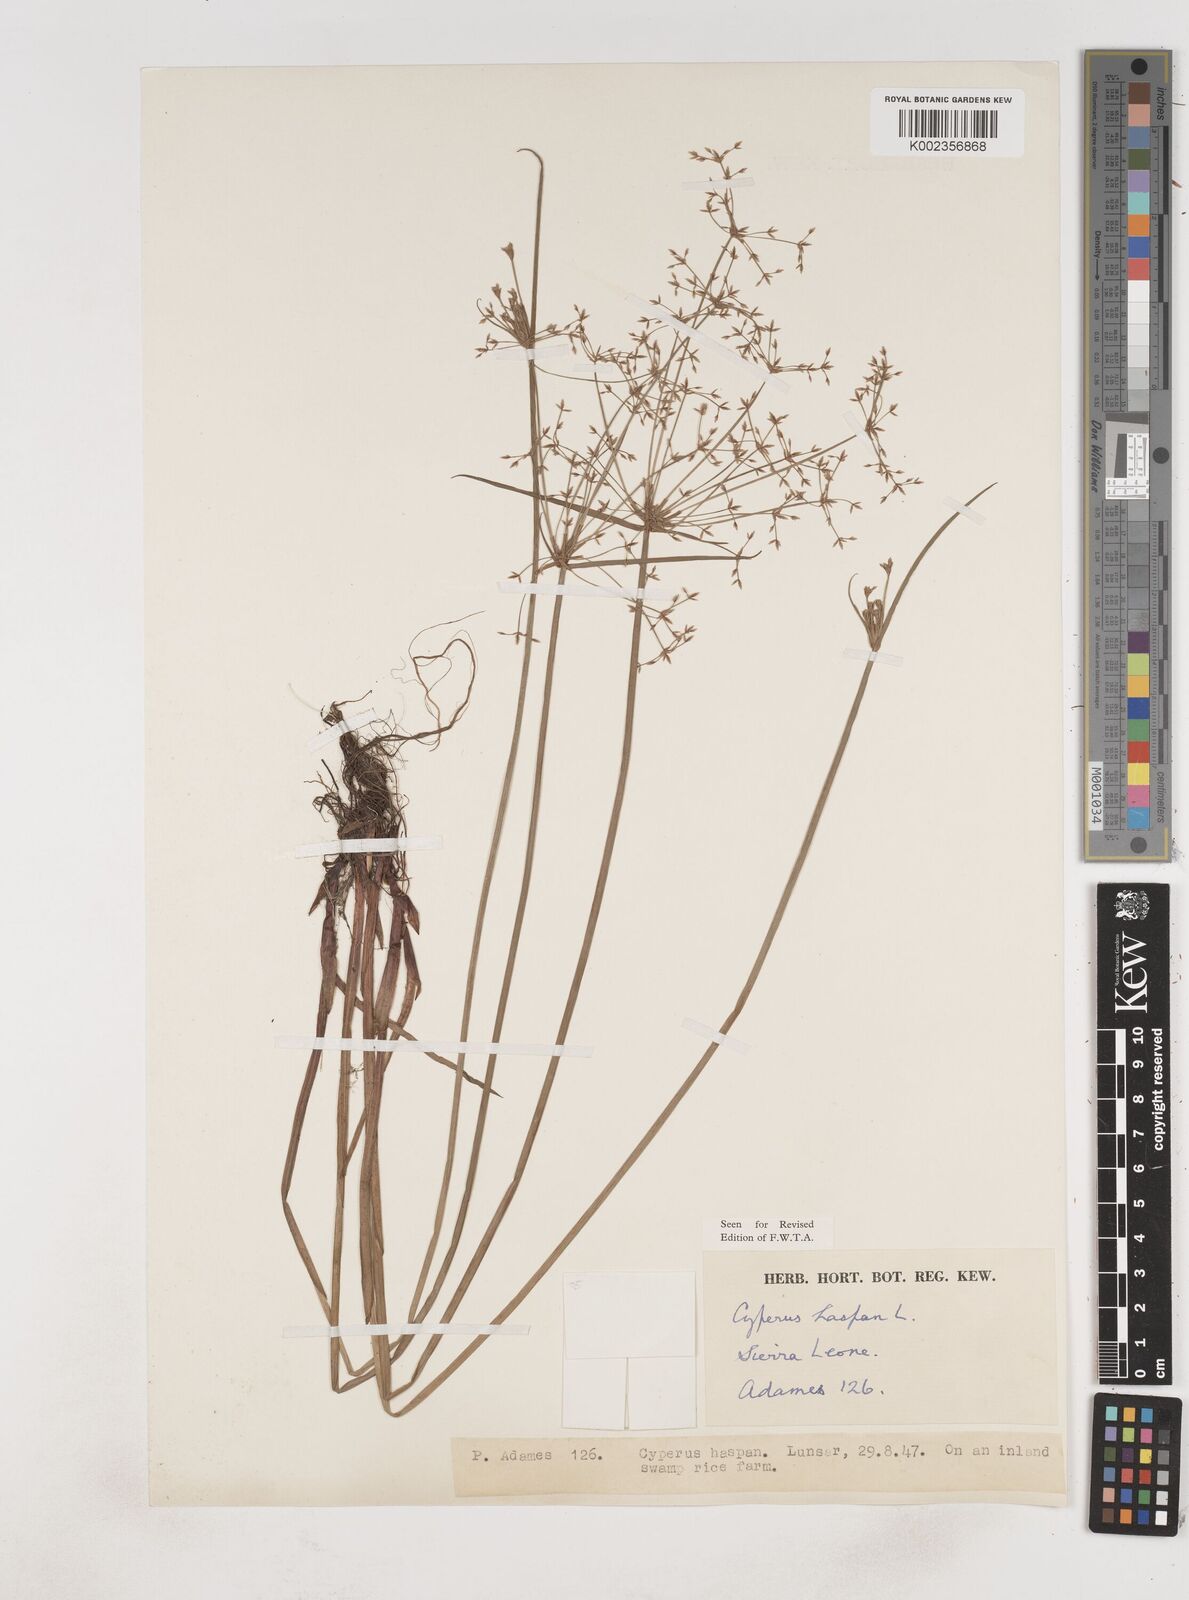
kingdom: Plantae
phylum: Tracheophyta
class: Liliopsida
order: Poales
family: Cyperaceae
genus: Cyperus
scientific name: Cyperus haspan
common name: Haspan flatsedge
